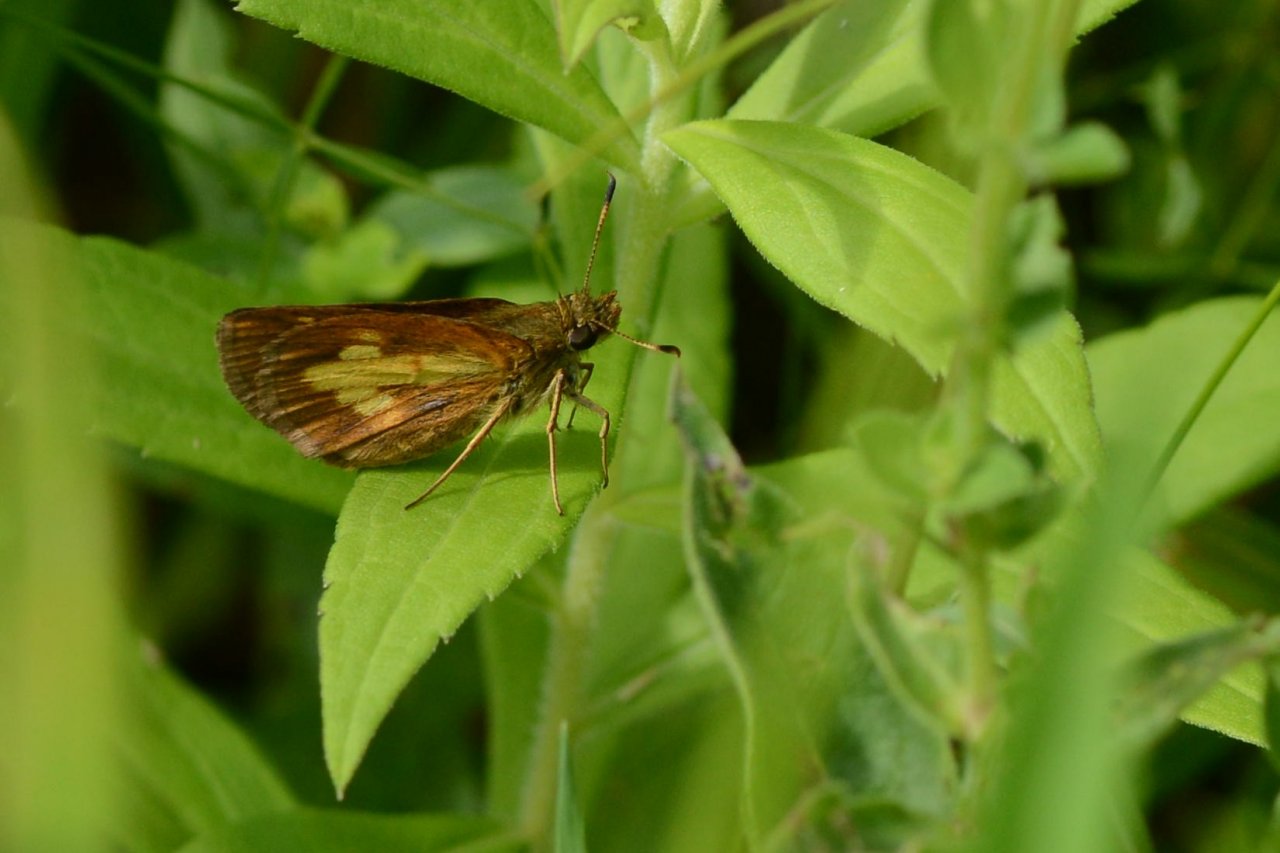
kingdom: Animalia
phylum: Arthropoda
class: Insecta
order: Lepidoptera
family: Hesperiidae
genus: Poanes
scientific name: Poanes massasoit
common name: Mulberry Wing
